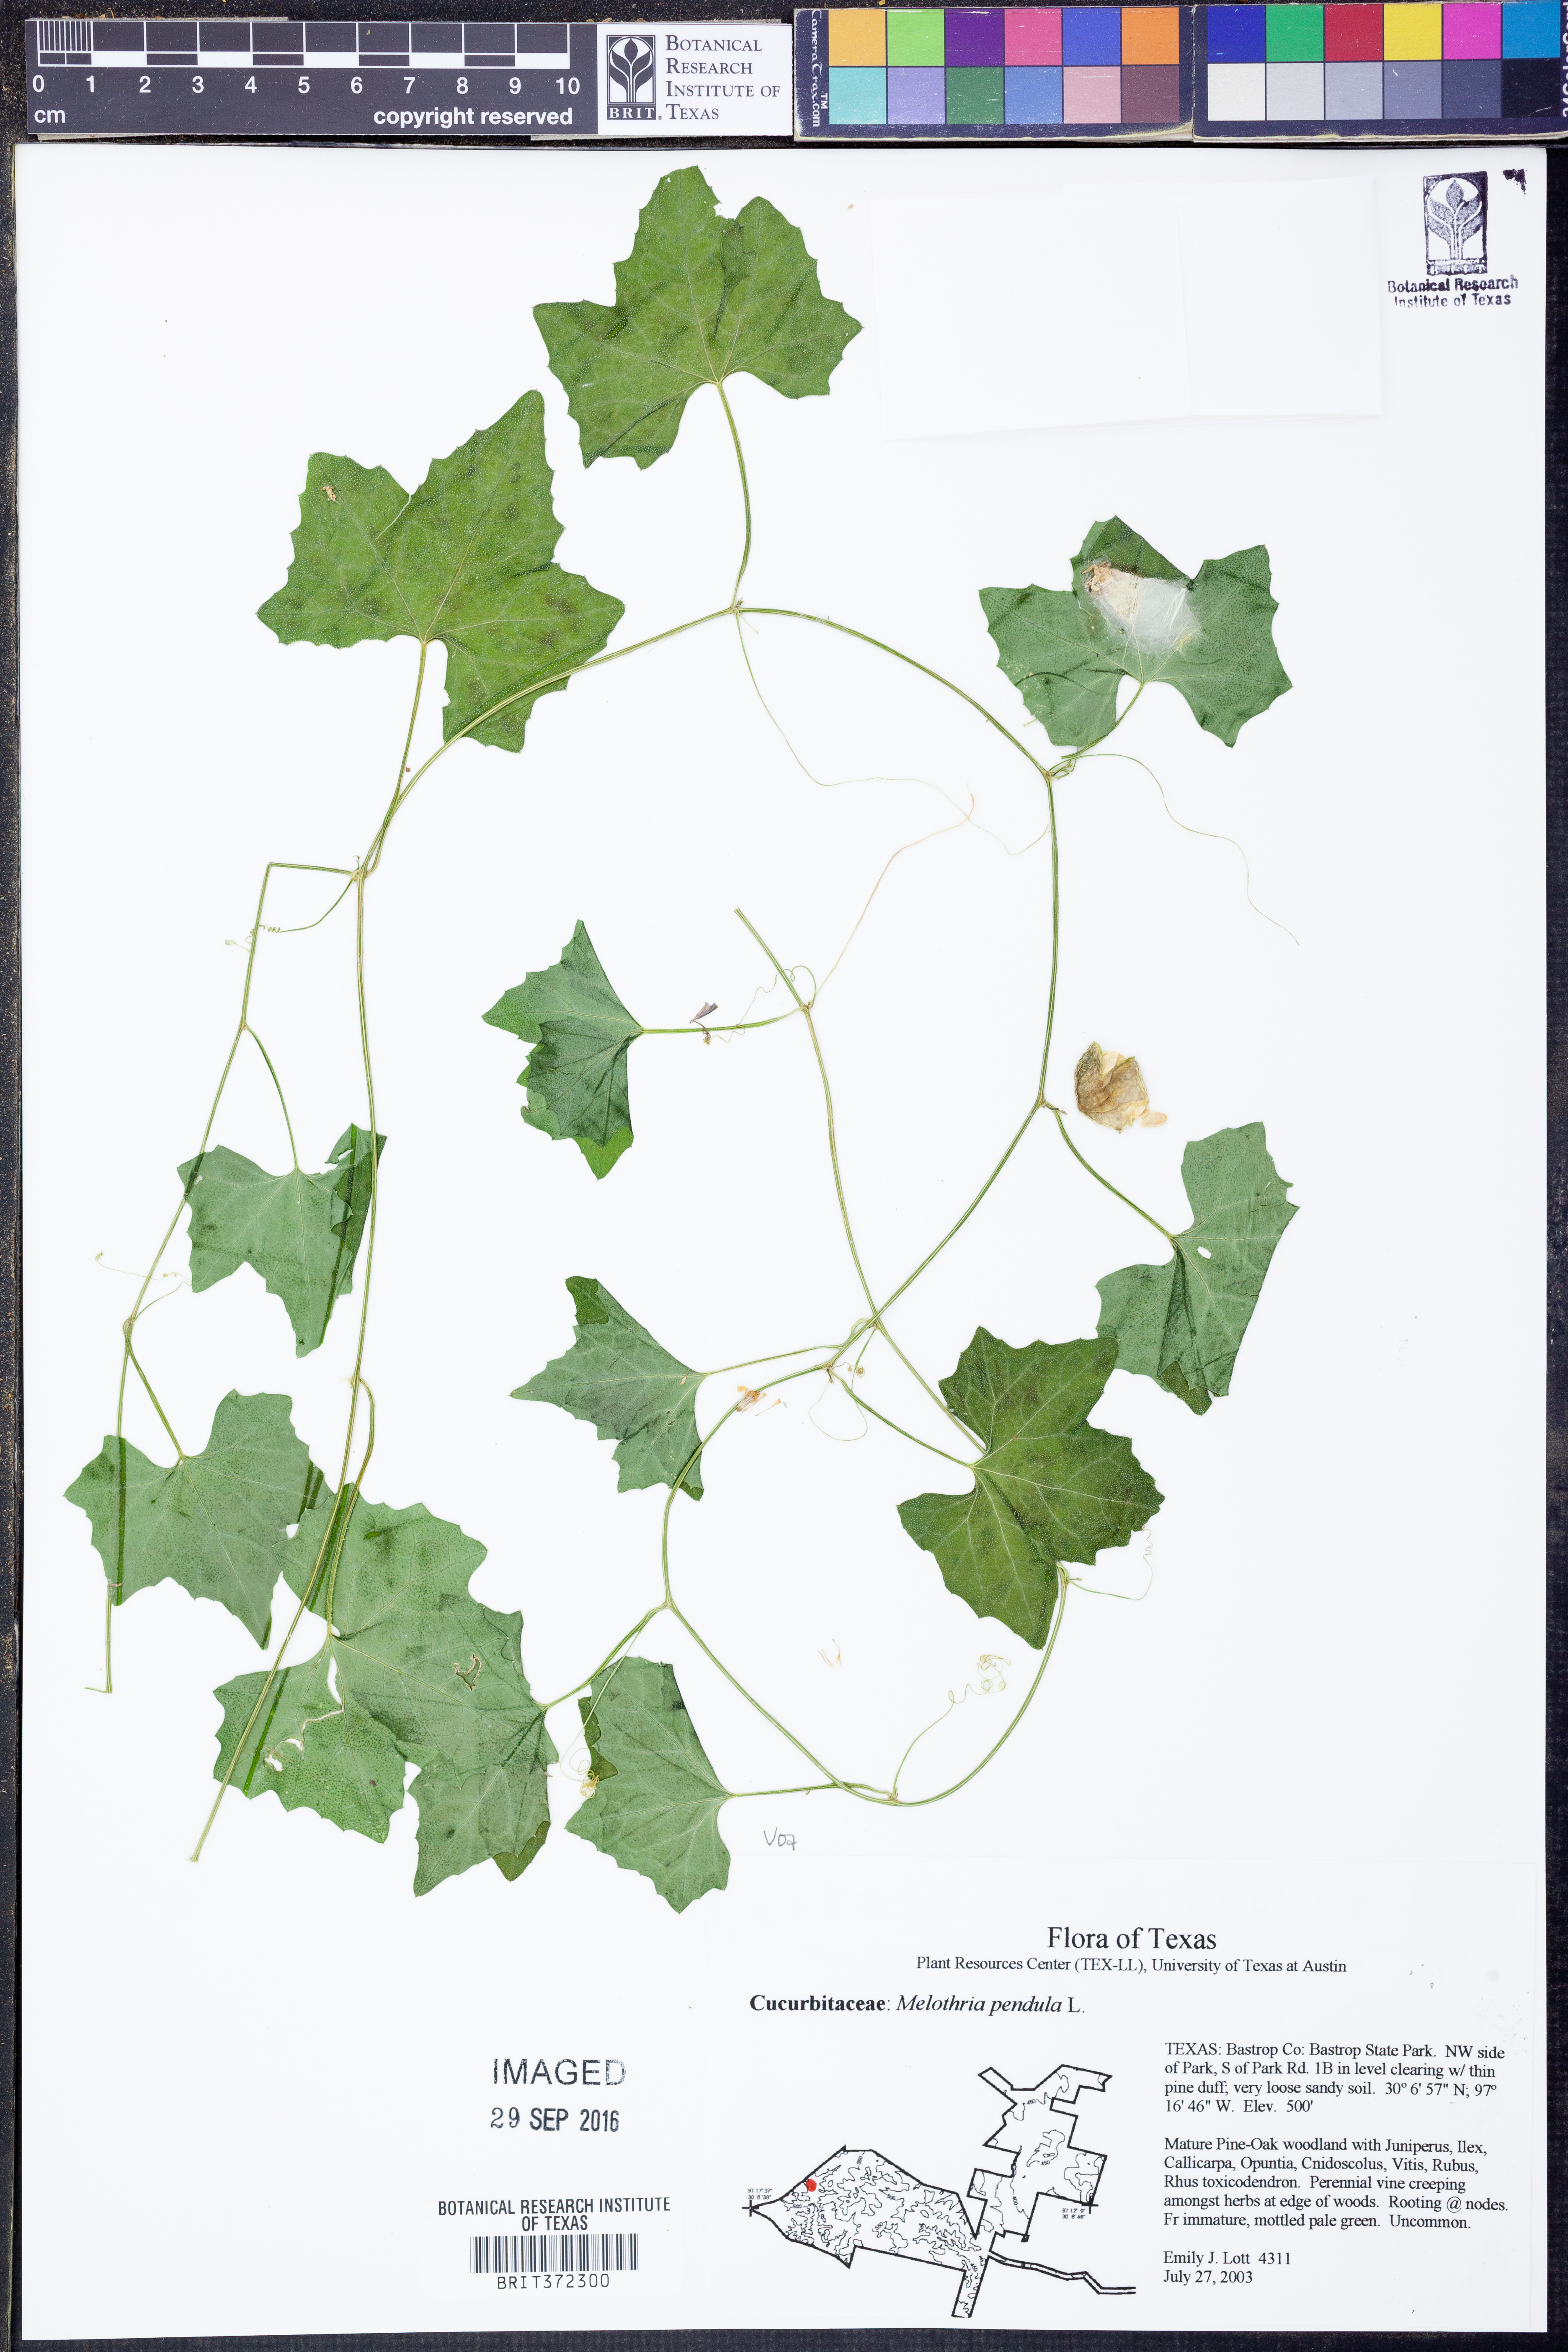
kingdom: Plantae
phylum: Tracheophyta
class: Magnoliopsida
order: Cucurbitales
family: Cucurbitaceae
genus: Melothria
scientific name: Melothria pendula
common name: Creeping-cucumber
